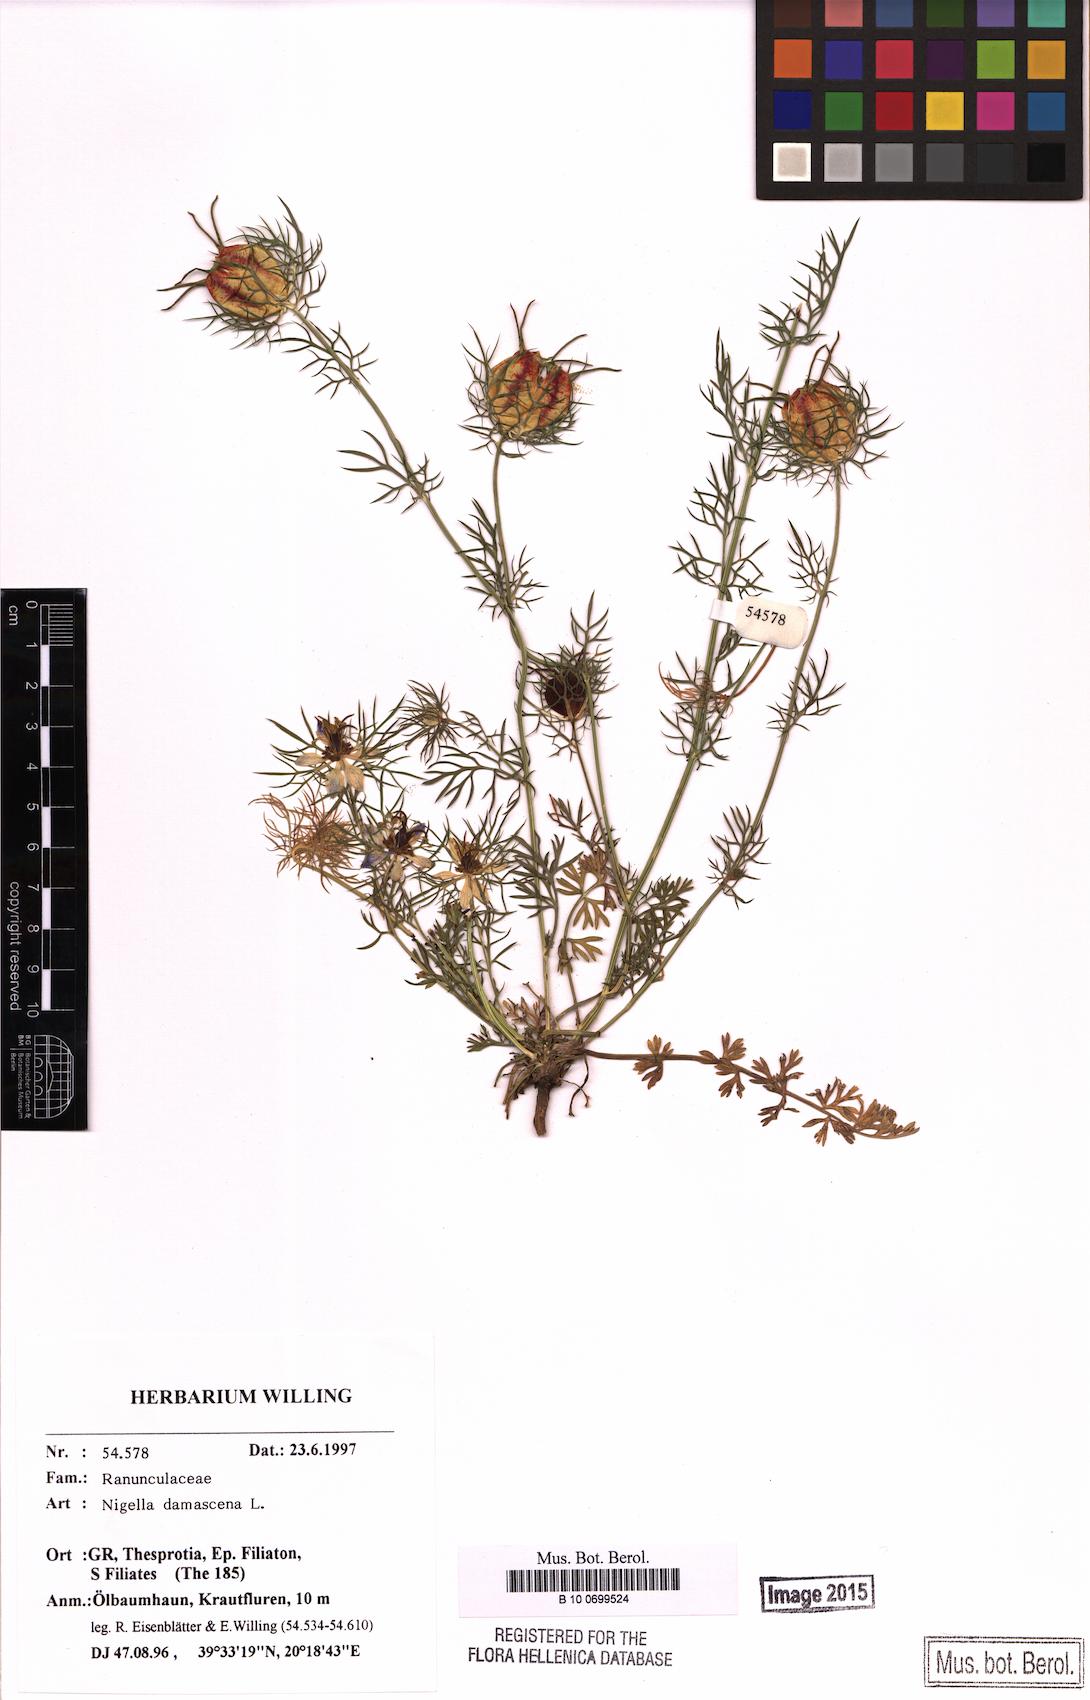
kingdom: Plantae
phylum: Tracheophyta
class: Magnoliopsida
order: Ranunculales
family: Ranunculaceae
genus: Nigella
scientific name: Nigella damascena
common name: Love-in-a-mist
